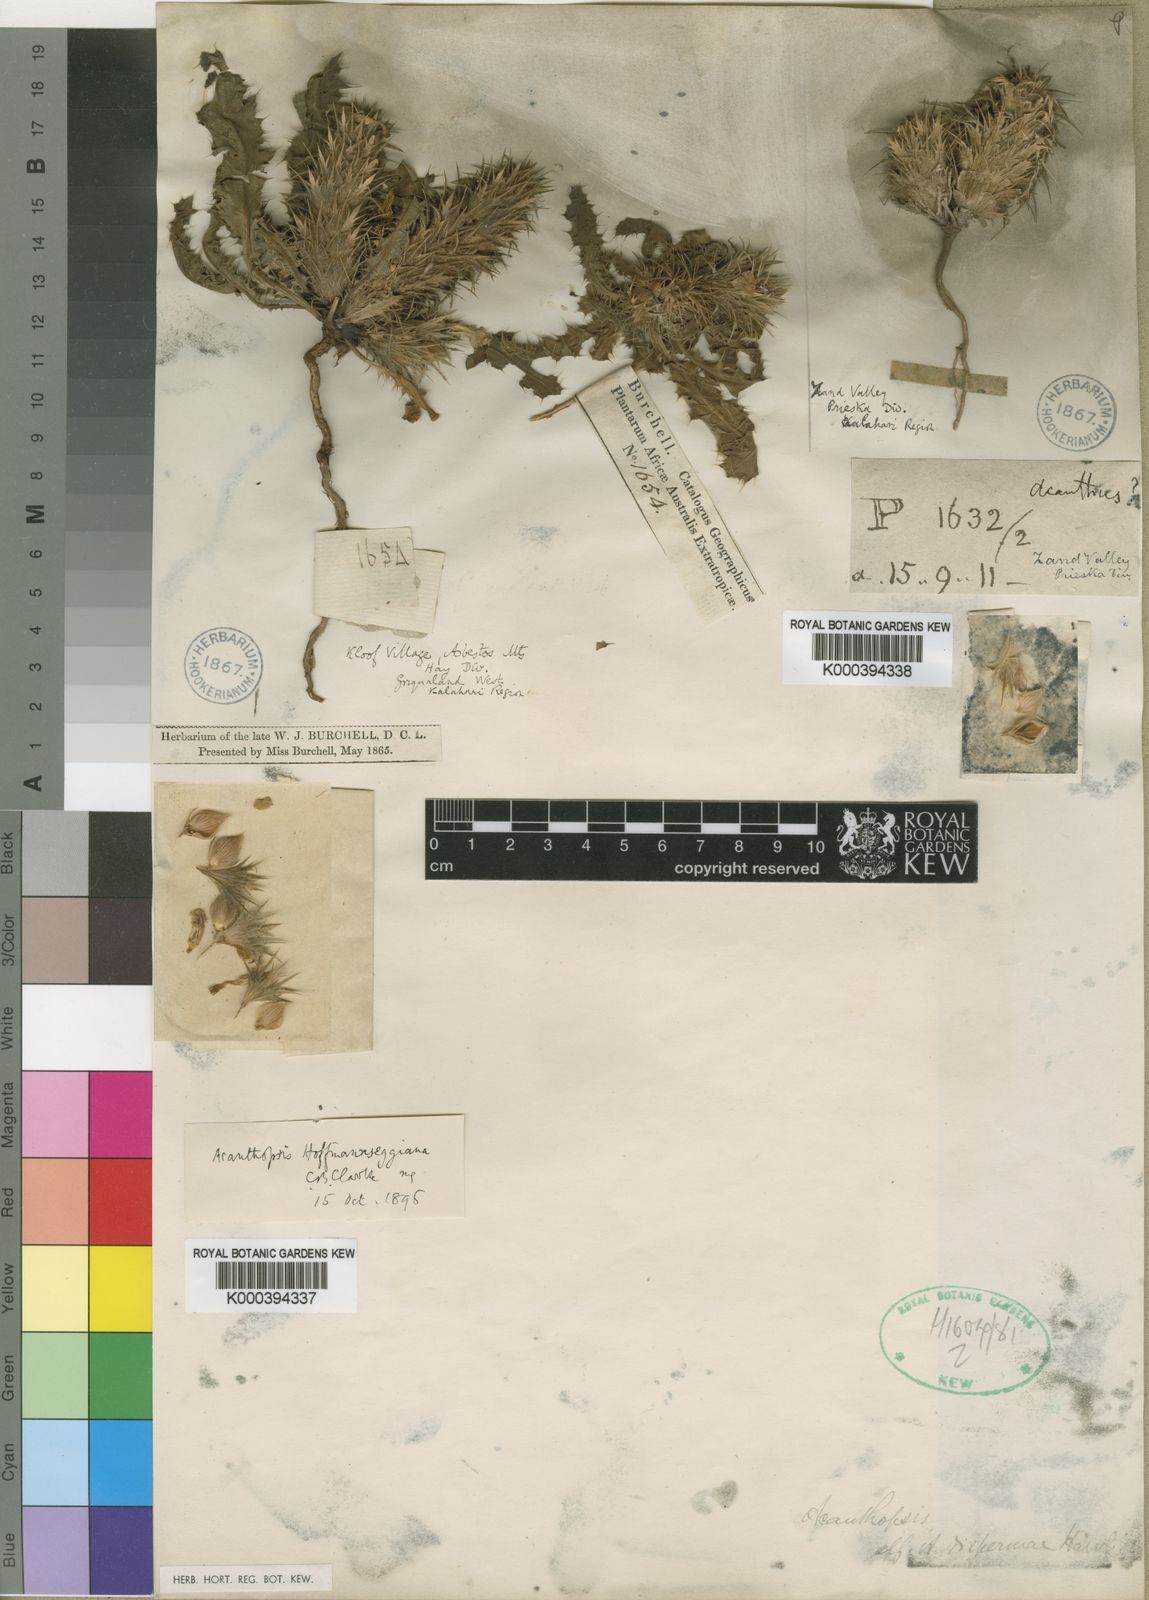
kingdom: Plantae
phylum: Tracheophyta
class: Magnoliopsida
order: Lamiales
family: Acanthaceae
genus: Acanthopsis
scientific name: Acanthopsis hoffmannseggiana
